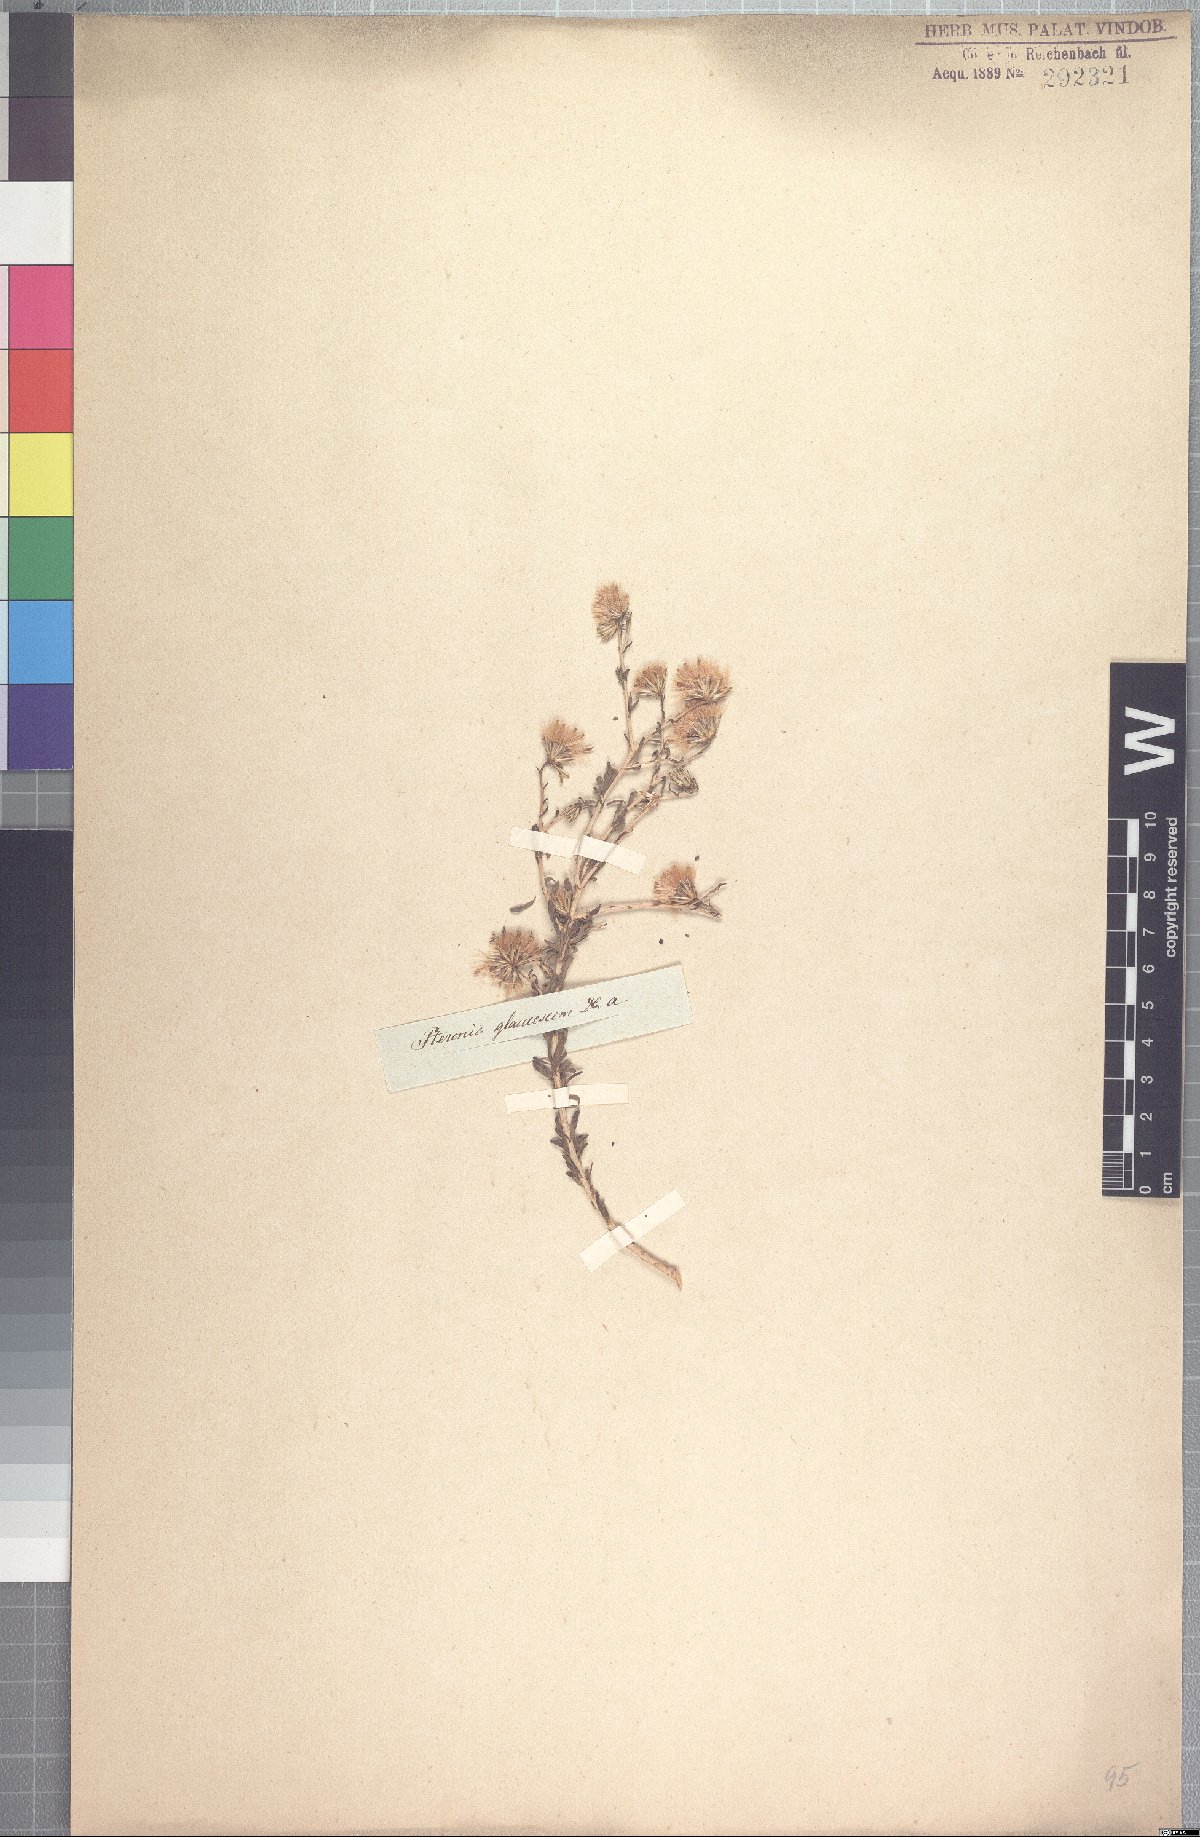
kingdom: Plantae
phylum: Tracheophyta
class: Magnoliopsida
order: Asterales
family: Asteraceae
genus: Pteronia
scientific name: Pteronia glaucescens
